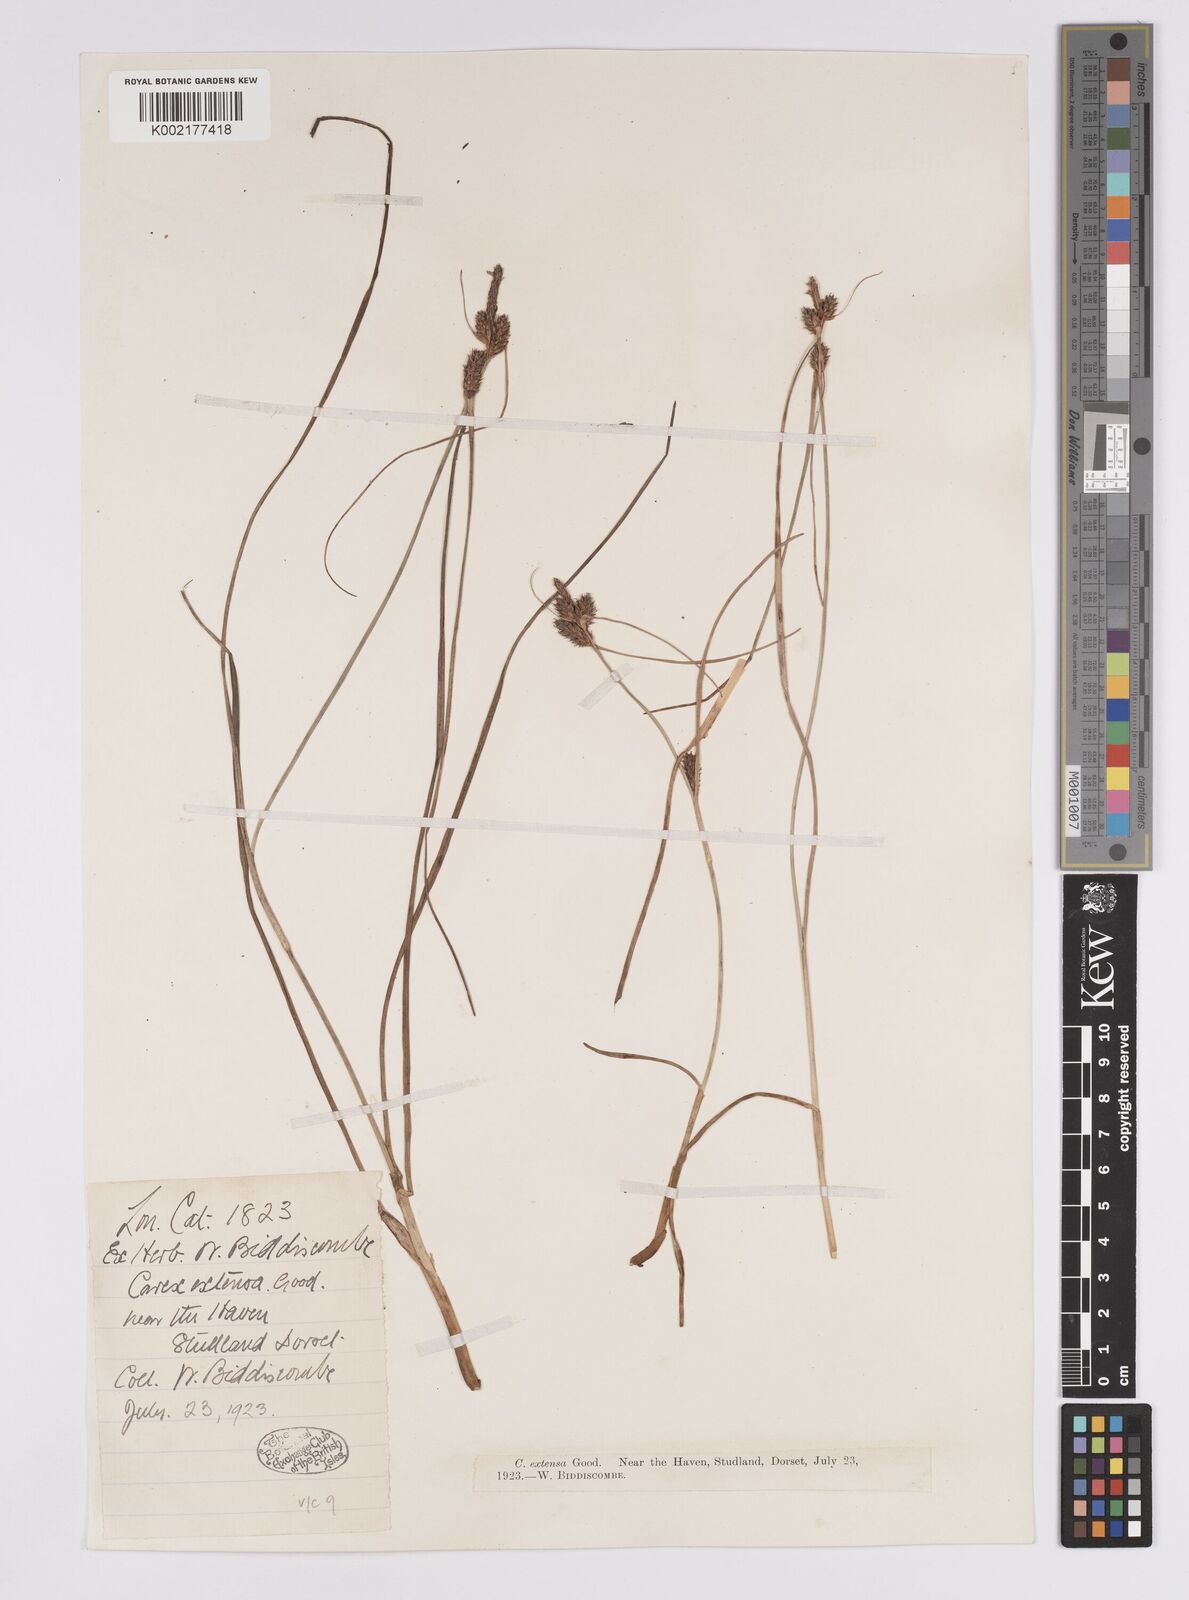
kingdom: Plantae
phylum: Tracheophyta
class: Liliopsida
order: Poales
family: Cyperaceae
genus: Carex
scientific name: Carex extensa
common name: Long-bracted sedge
